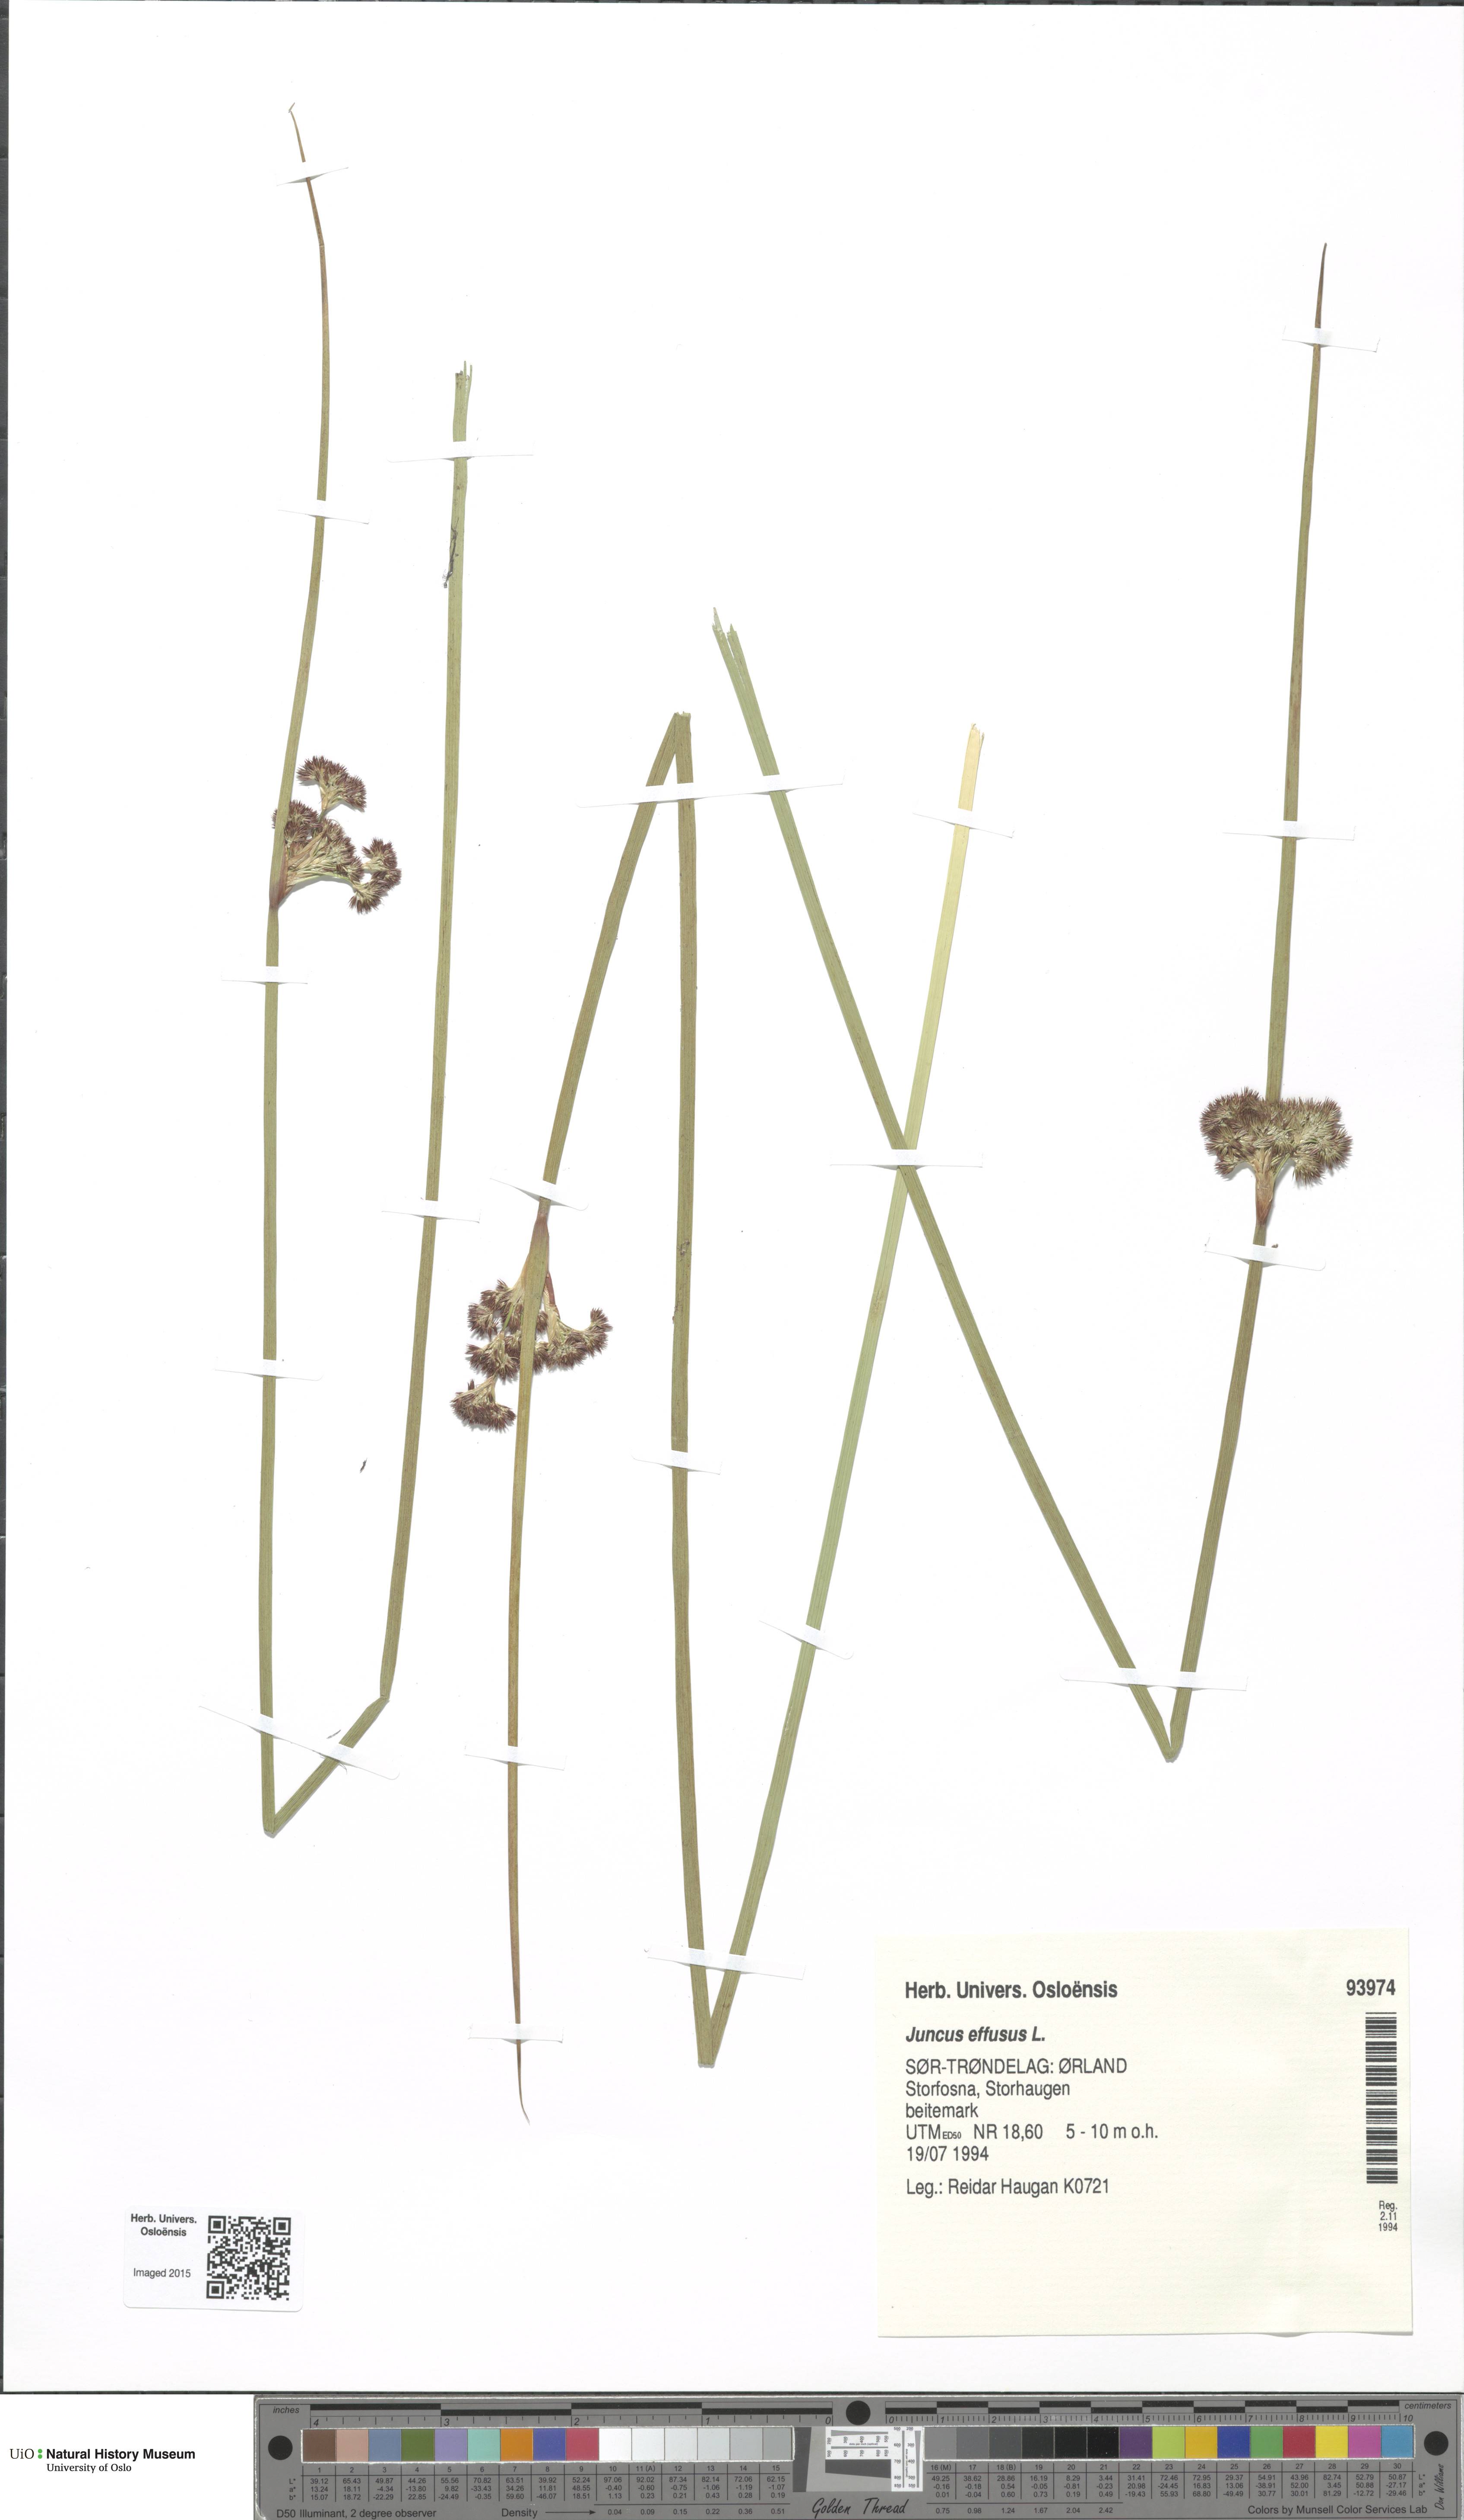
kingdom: Plantae
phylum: Tracheophyta
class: Liliopsida
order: Poales
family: Juncaceae
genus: Juncus
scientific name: Juncus effusus
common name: Soft rush
